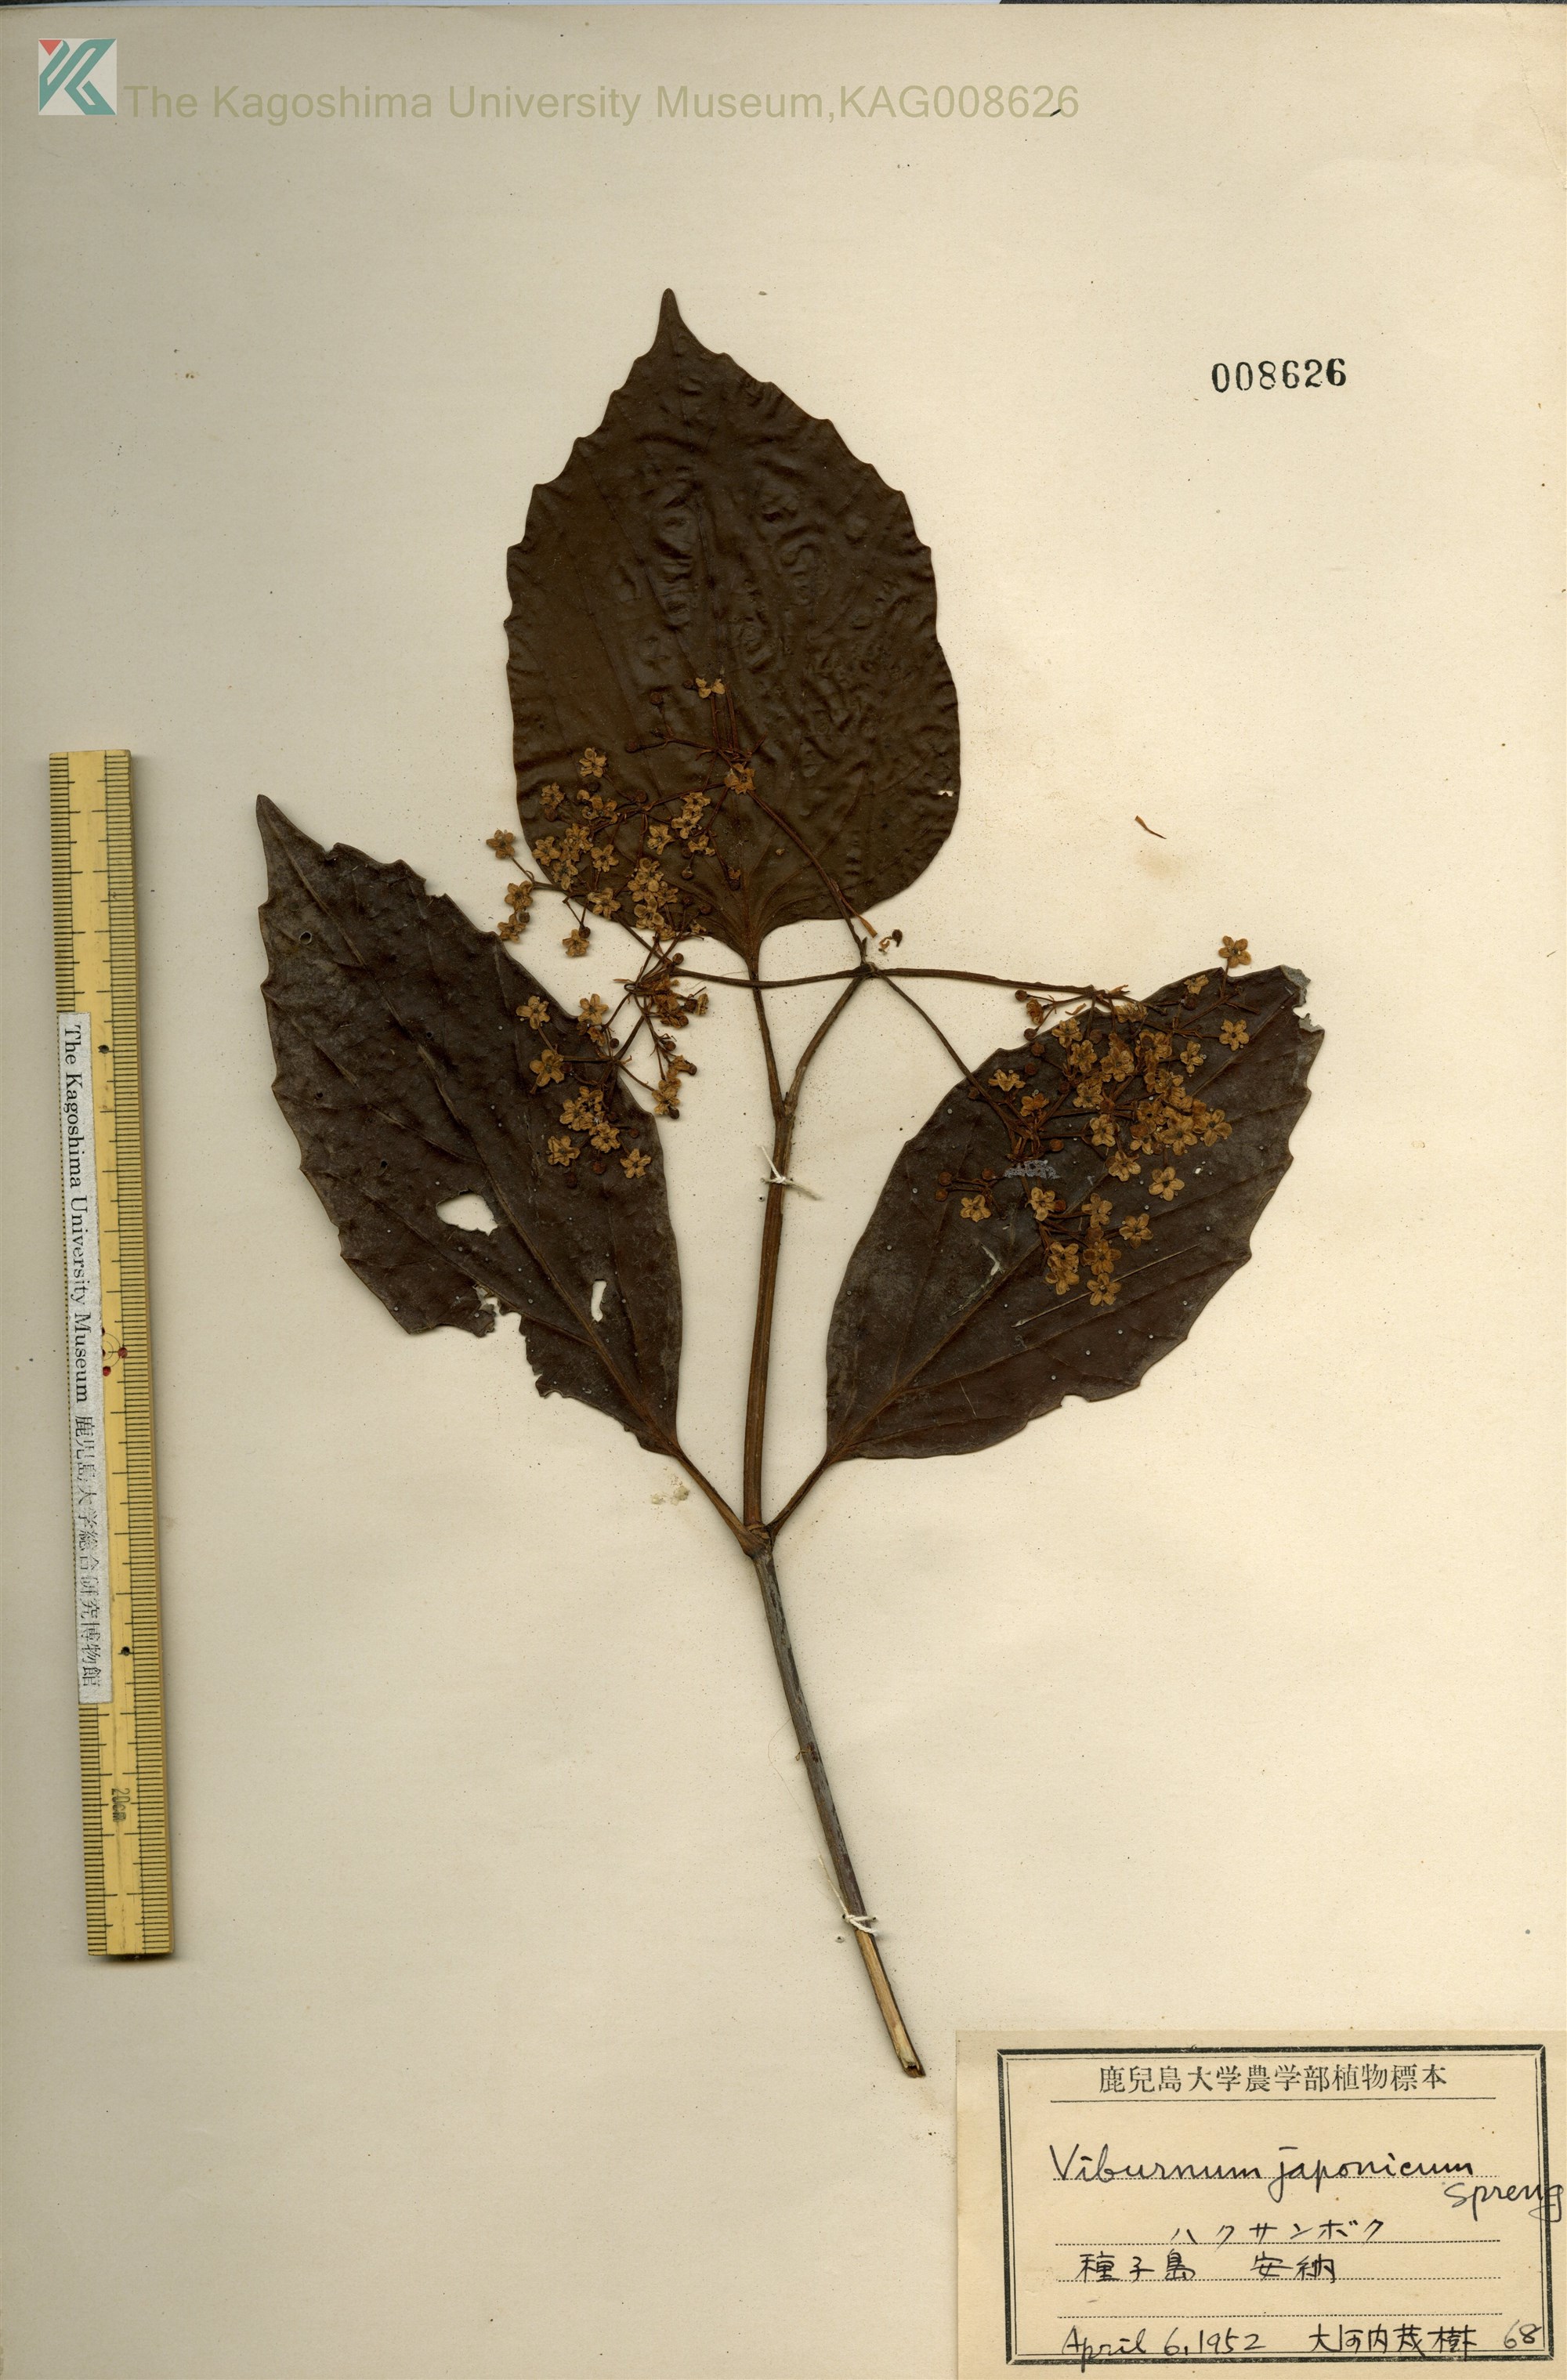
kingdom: Plantae
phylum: Tracheophyta
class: Magnoliopsida
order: Dipsacales
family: Viburnaceae
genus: Viburnum
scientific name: Viburnum japonicum
